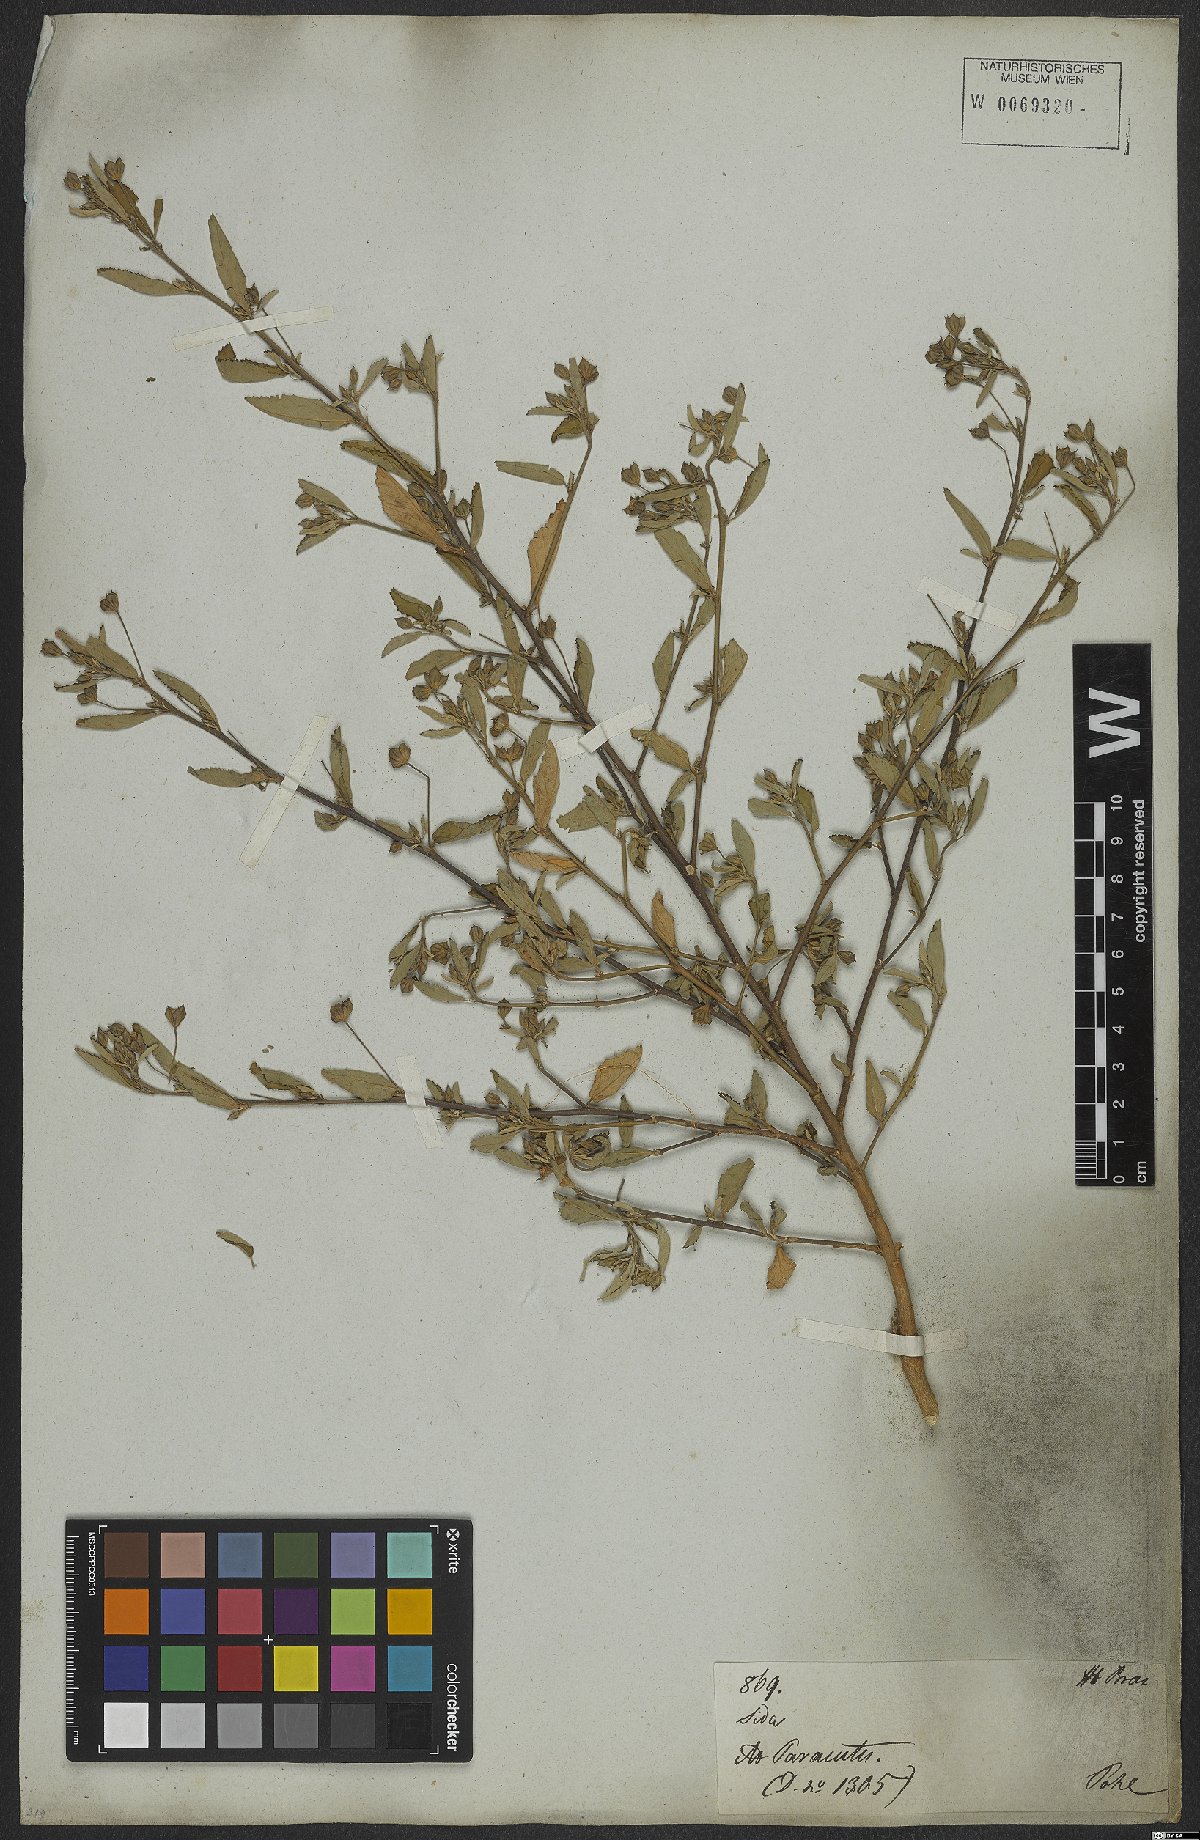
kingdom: Plantae
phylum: Tracheophyta
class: Magnoliopsida
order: Malvales
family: Malvaceae
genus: Sida
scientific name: Sida rhombifolia
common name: Queensland-hemp
